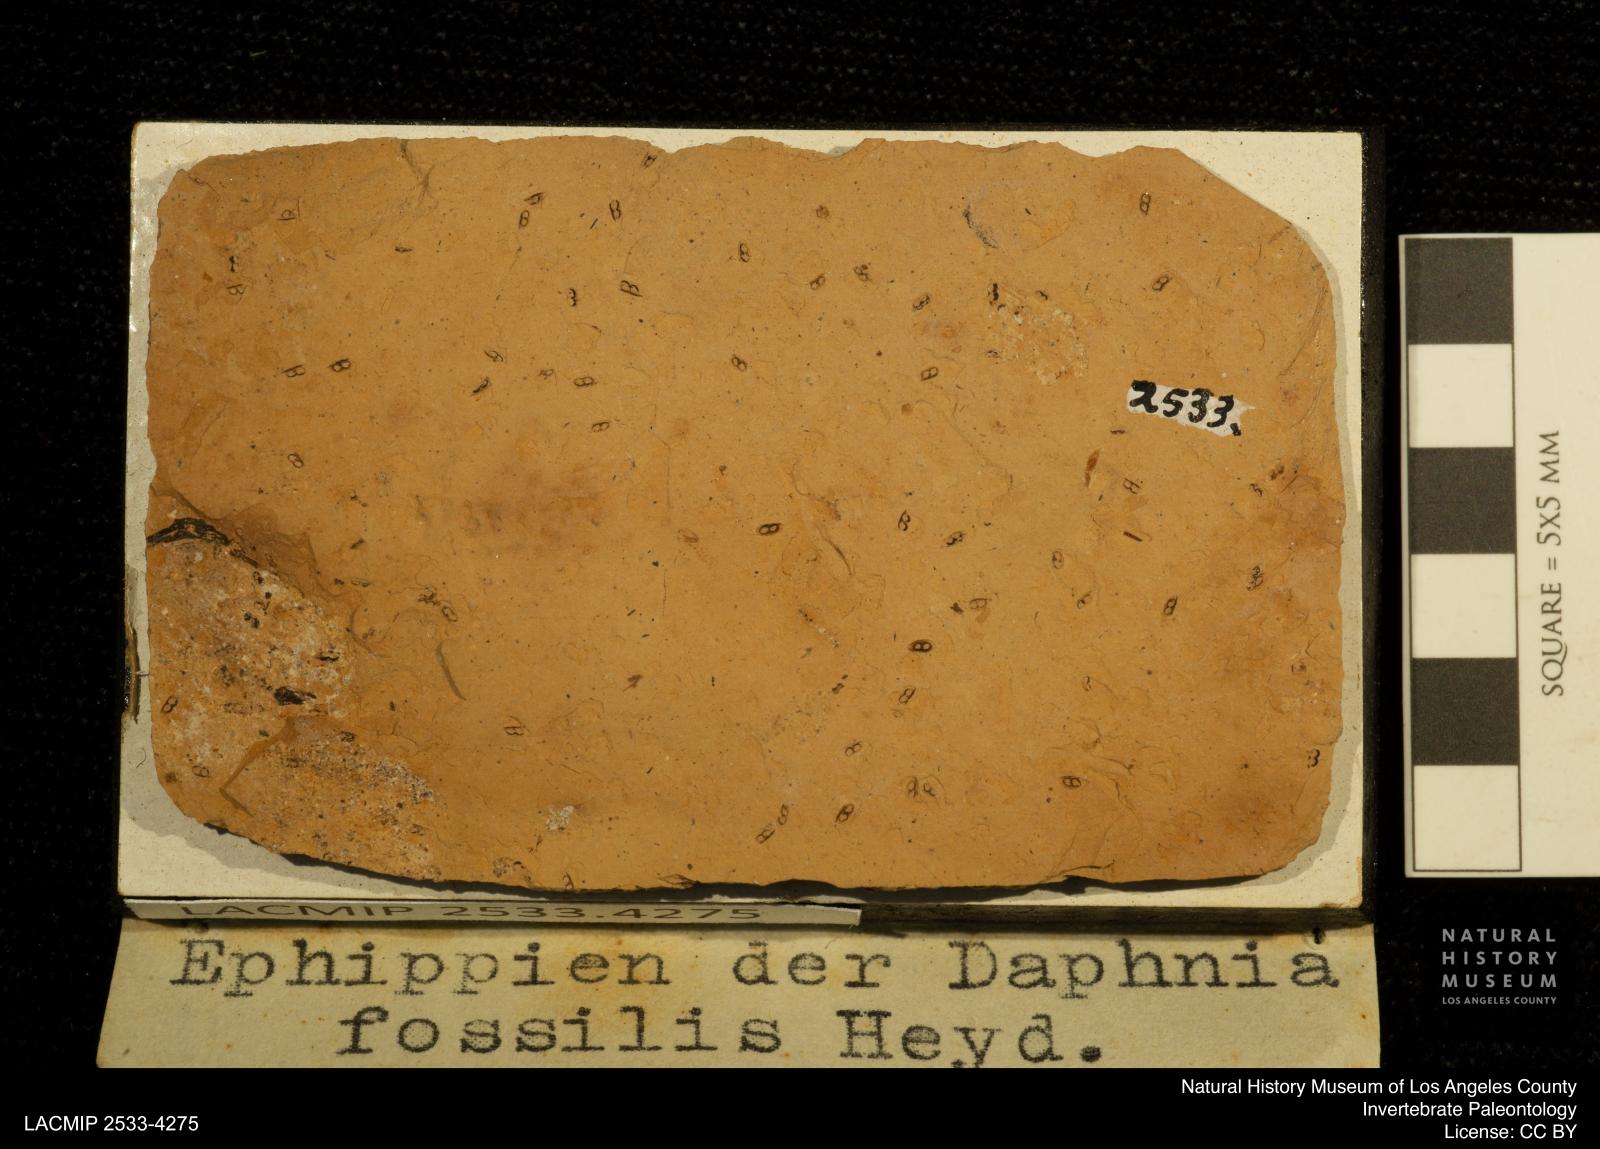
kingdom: Animalia
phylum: Arthropoda
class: Branchiopoda
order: Diplostraca
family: Daphniidae
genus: Daphnia
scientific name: Daphnia
